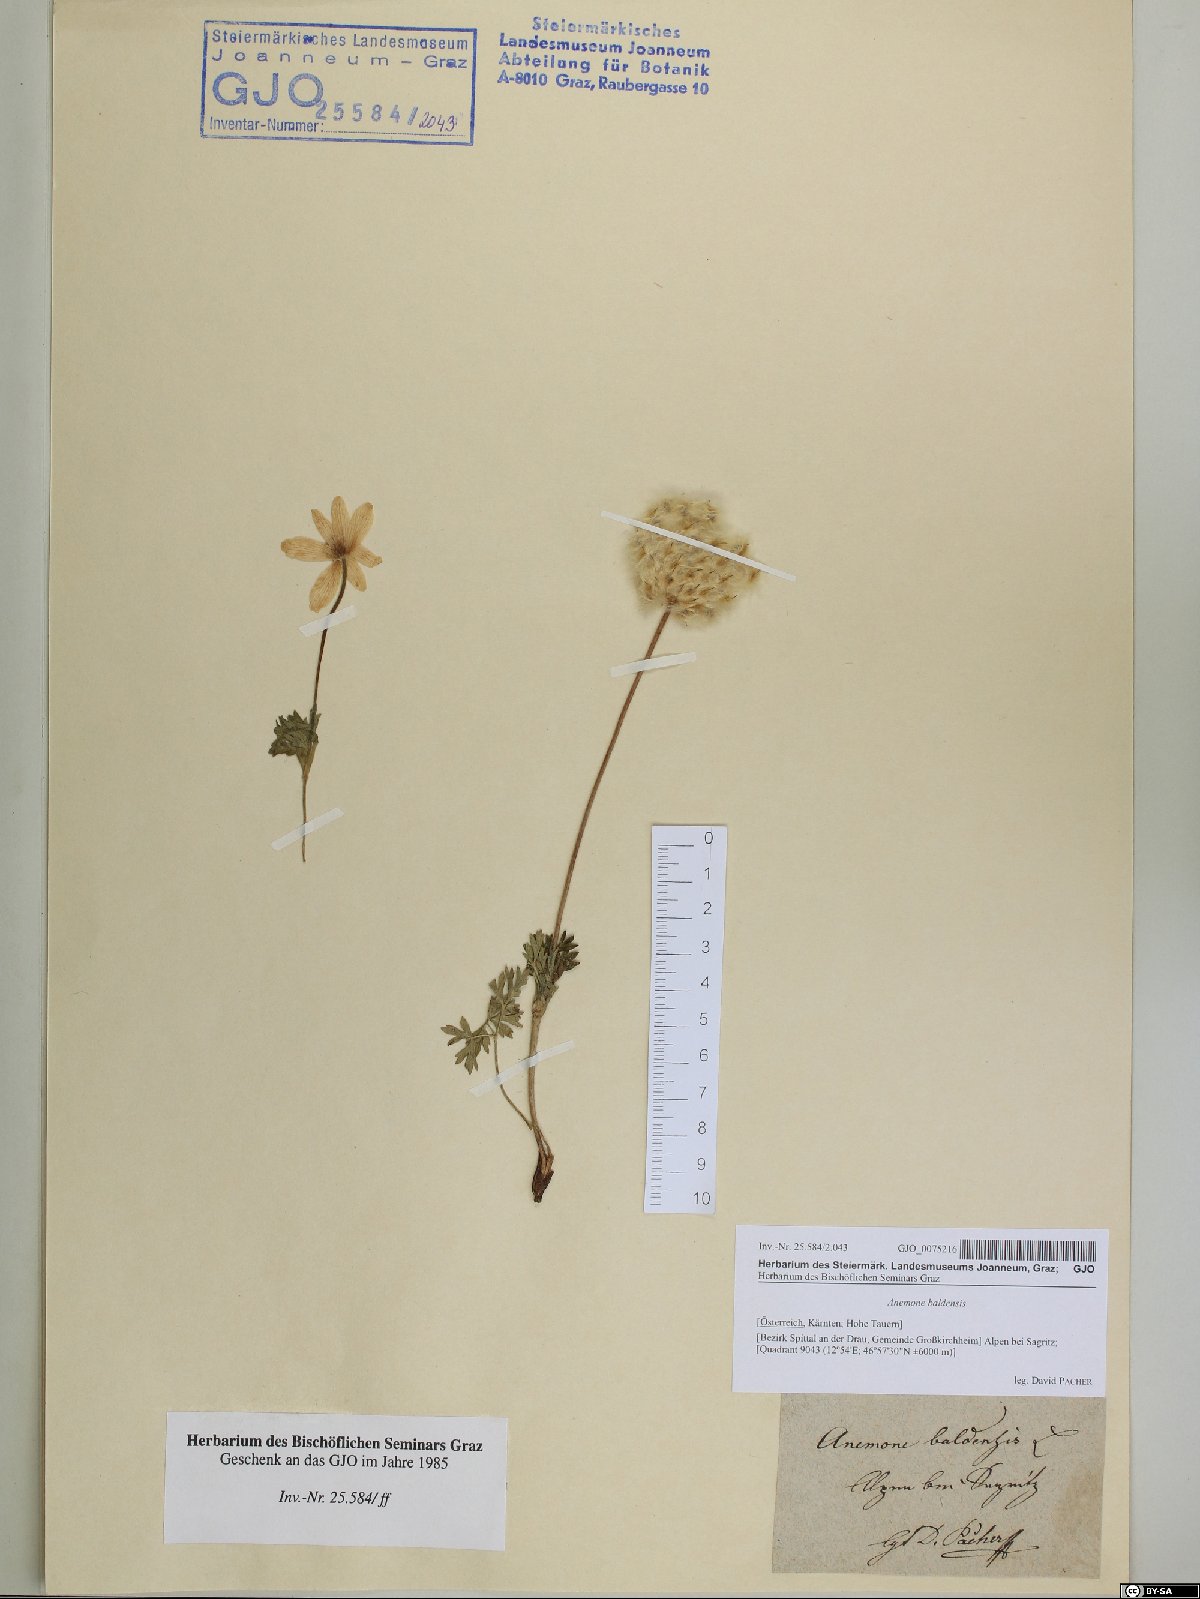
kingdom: Plantae
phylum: Tracheophyta
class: Magnoliopsida
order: Ranunculales
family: Ranunculaceae
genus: Anemone
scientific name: Anemone baldensis
